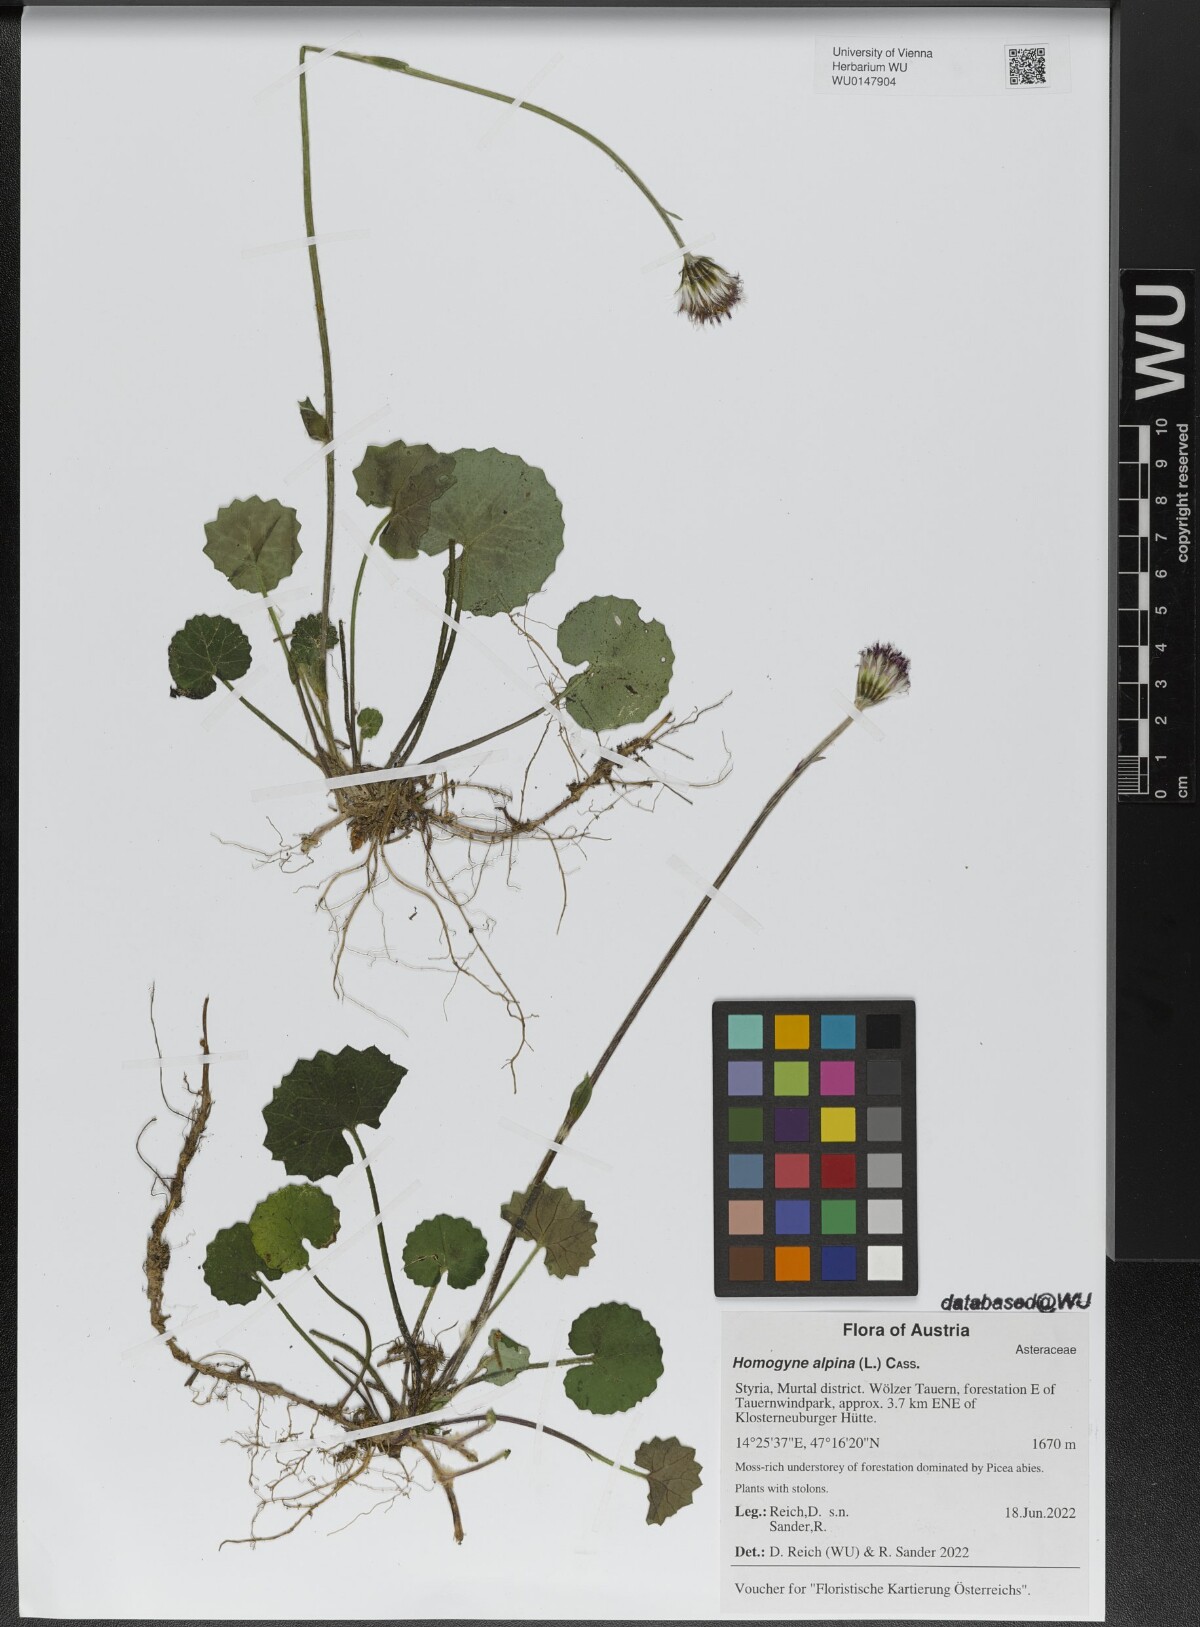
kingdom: Plantae
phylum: Tracheophyta
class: Magnoliopsida
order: Asterales
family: Asteraceae
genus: Homogyne
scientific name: Homogyne alpina
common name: Purple colt's-foot
